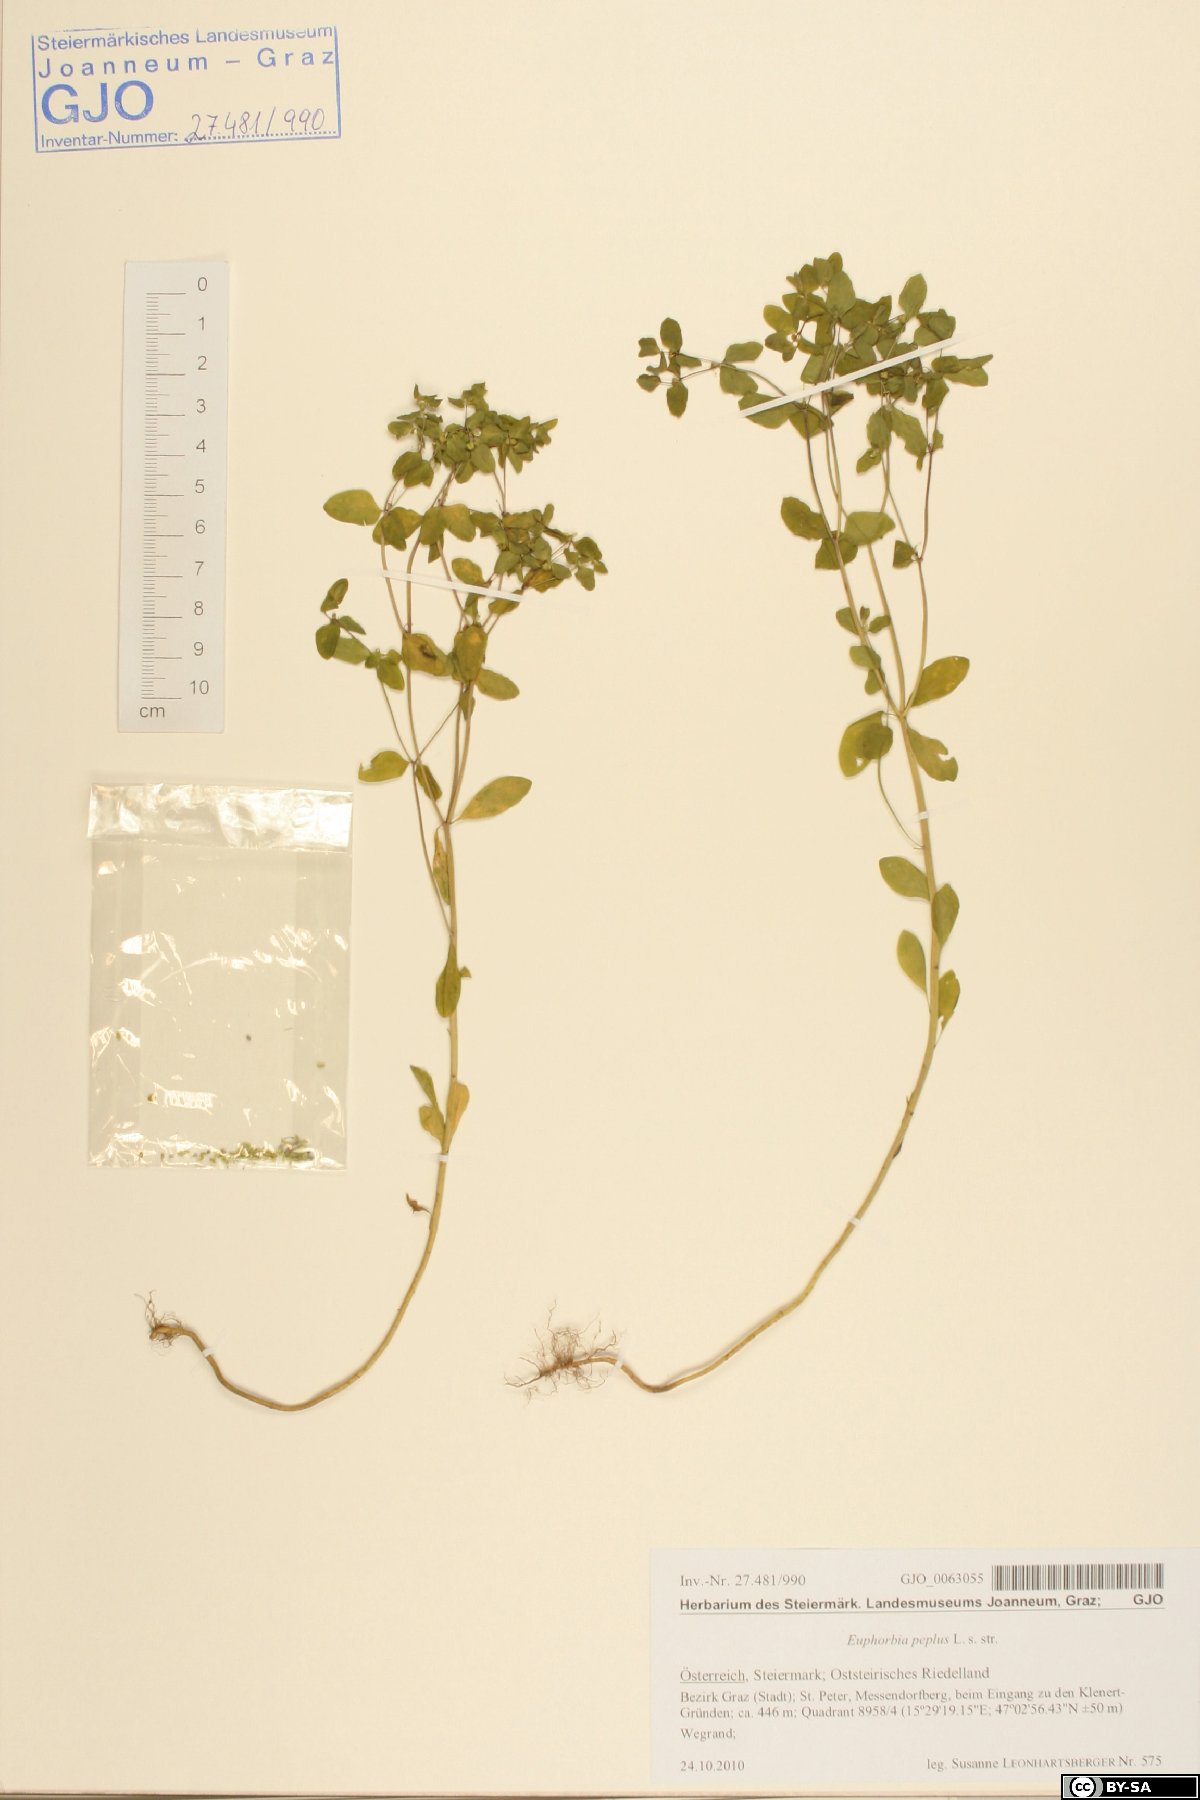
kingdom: Plantae
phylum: Tracheophyta
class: Magnoliopsida
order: Malpighiales
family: Euphorbiaceae
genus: Euphorbia
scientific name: Euphorbia peplus
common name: Petty spurge
